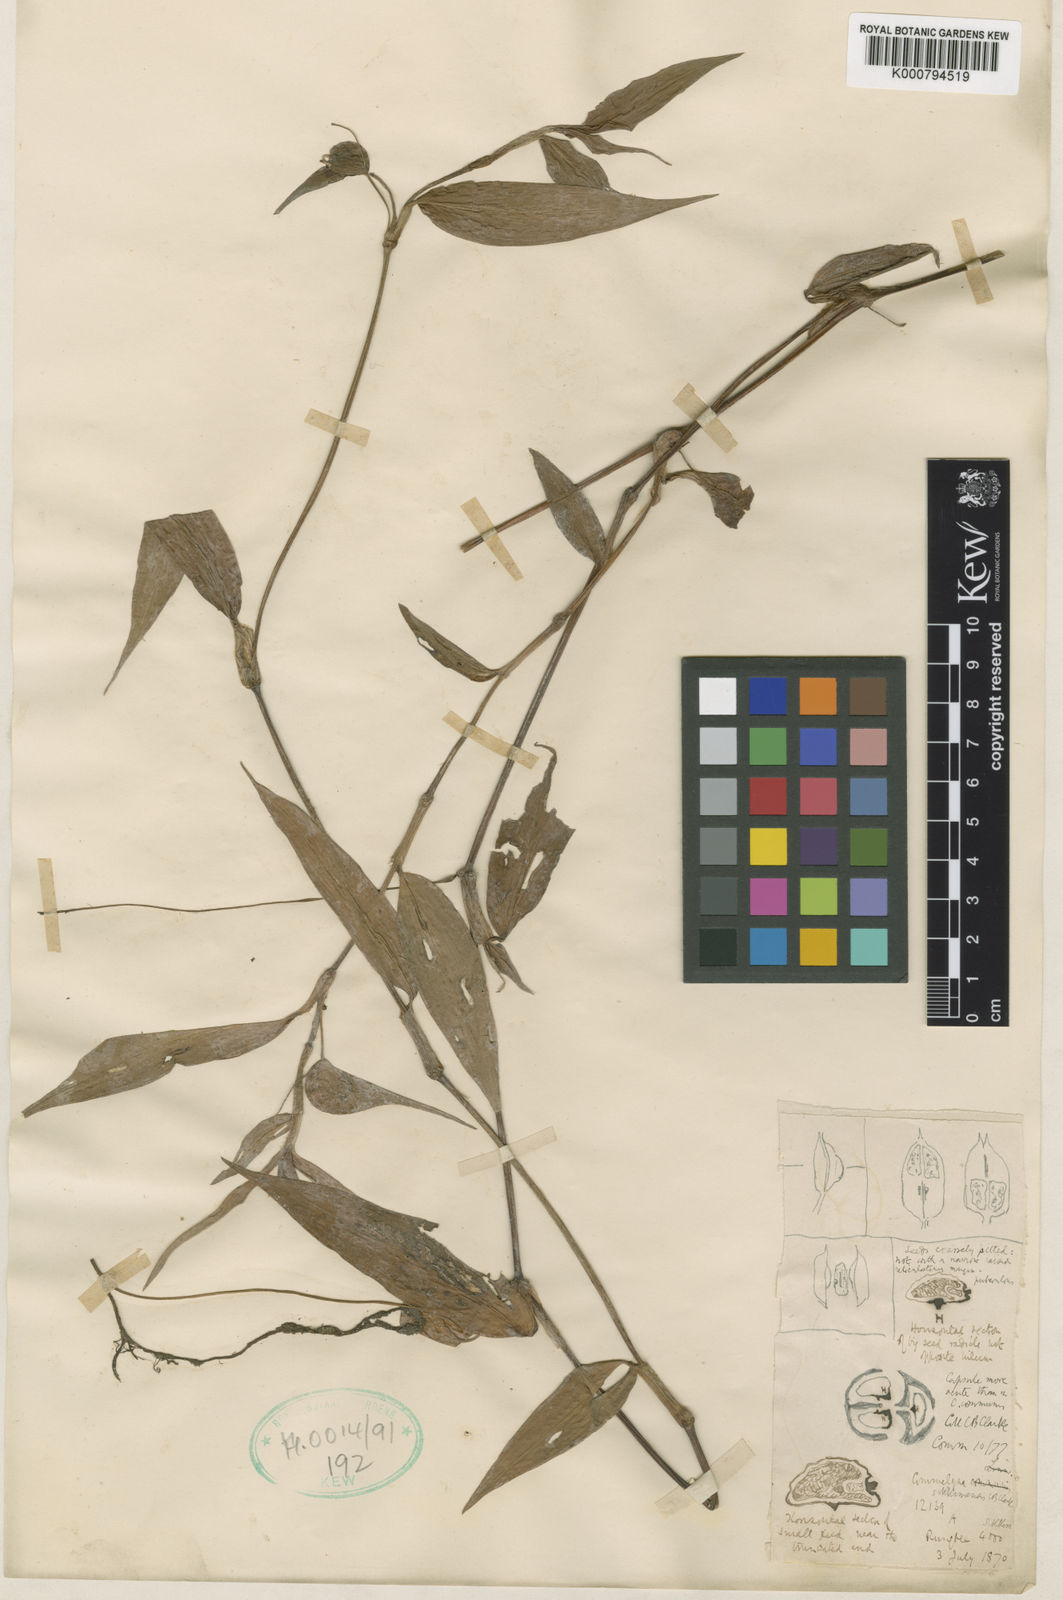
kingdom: Plantae
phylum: Tracheophyta
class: Liliopsida
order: Commelinales
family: Commelinaceae
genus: Commelina
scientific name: Commelina sikkimensis
